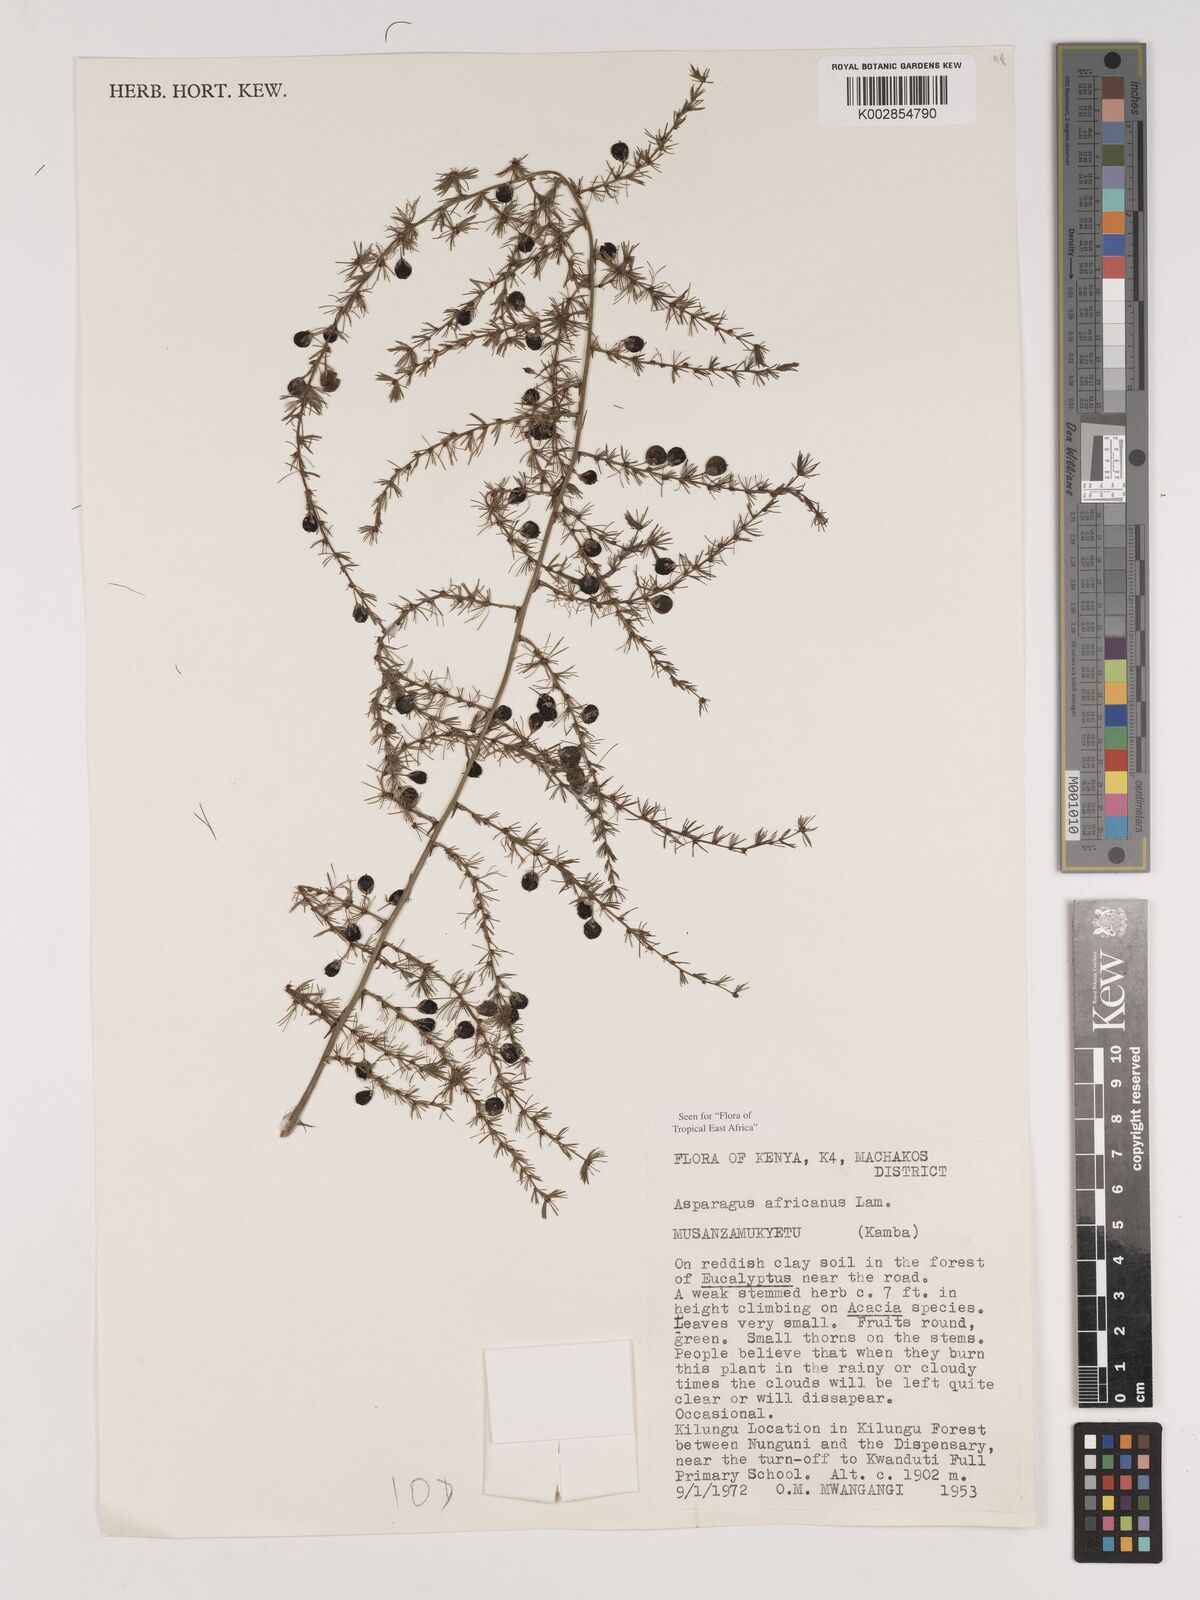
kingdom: Plantae
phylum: Tracheophyta
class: Liliopsida
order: Asparagales
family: Asparagaceae
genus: Asparagus
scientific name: Asparagus africanus
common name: Asparagus-fern
